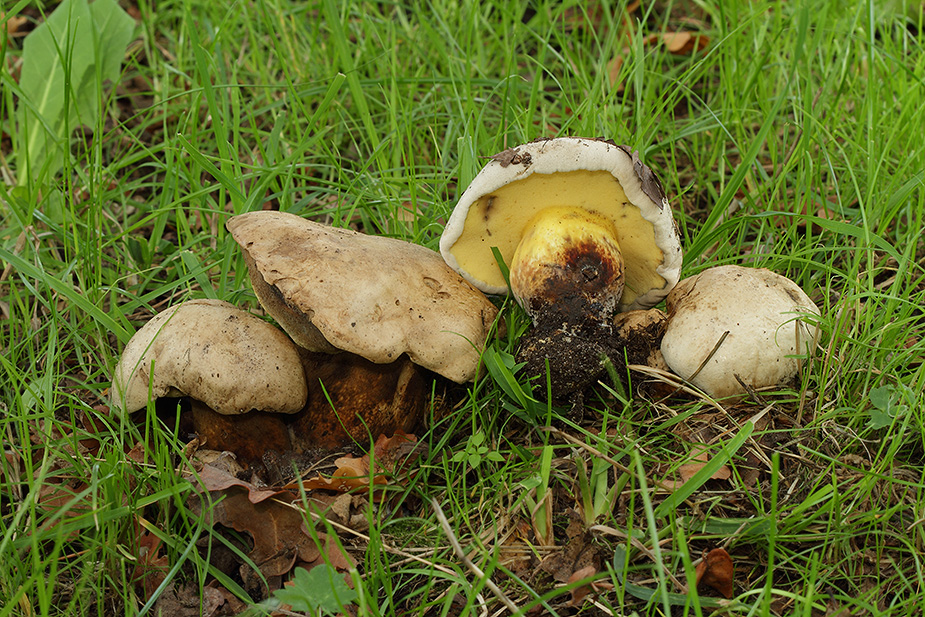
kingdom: Fungi
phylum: Basidiomycota
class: Agaricomycetes
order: Boletales
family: Boletaceae
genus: Caloboletus
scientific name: Caloboletus radicans
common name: rod-rørhat
